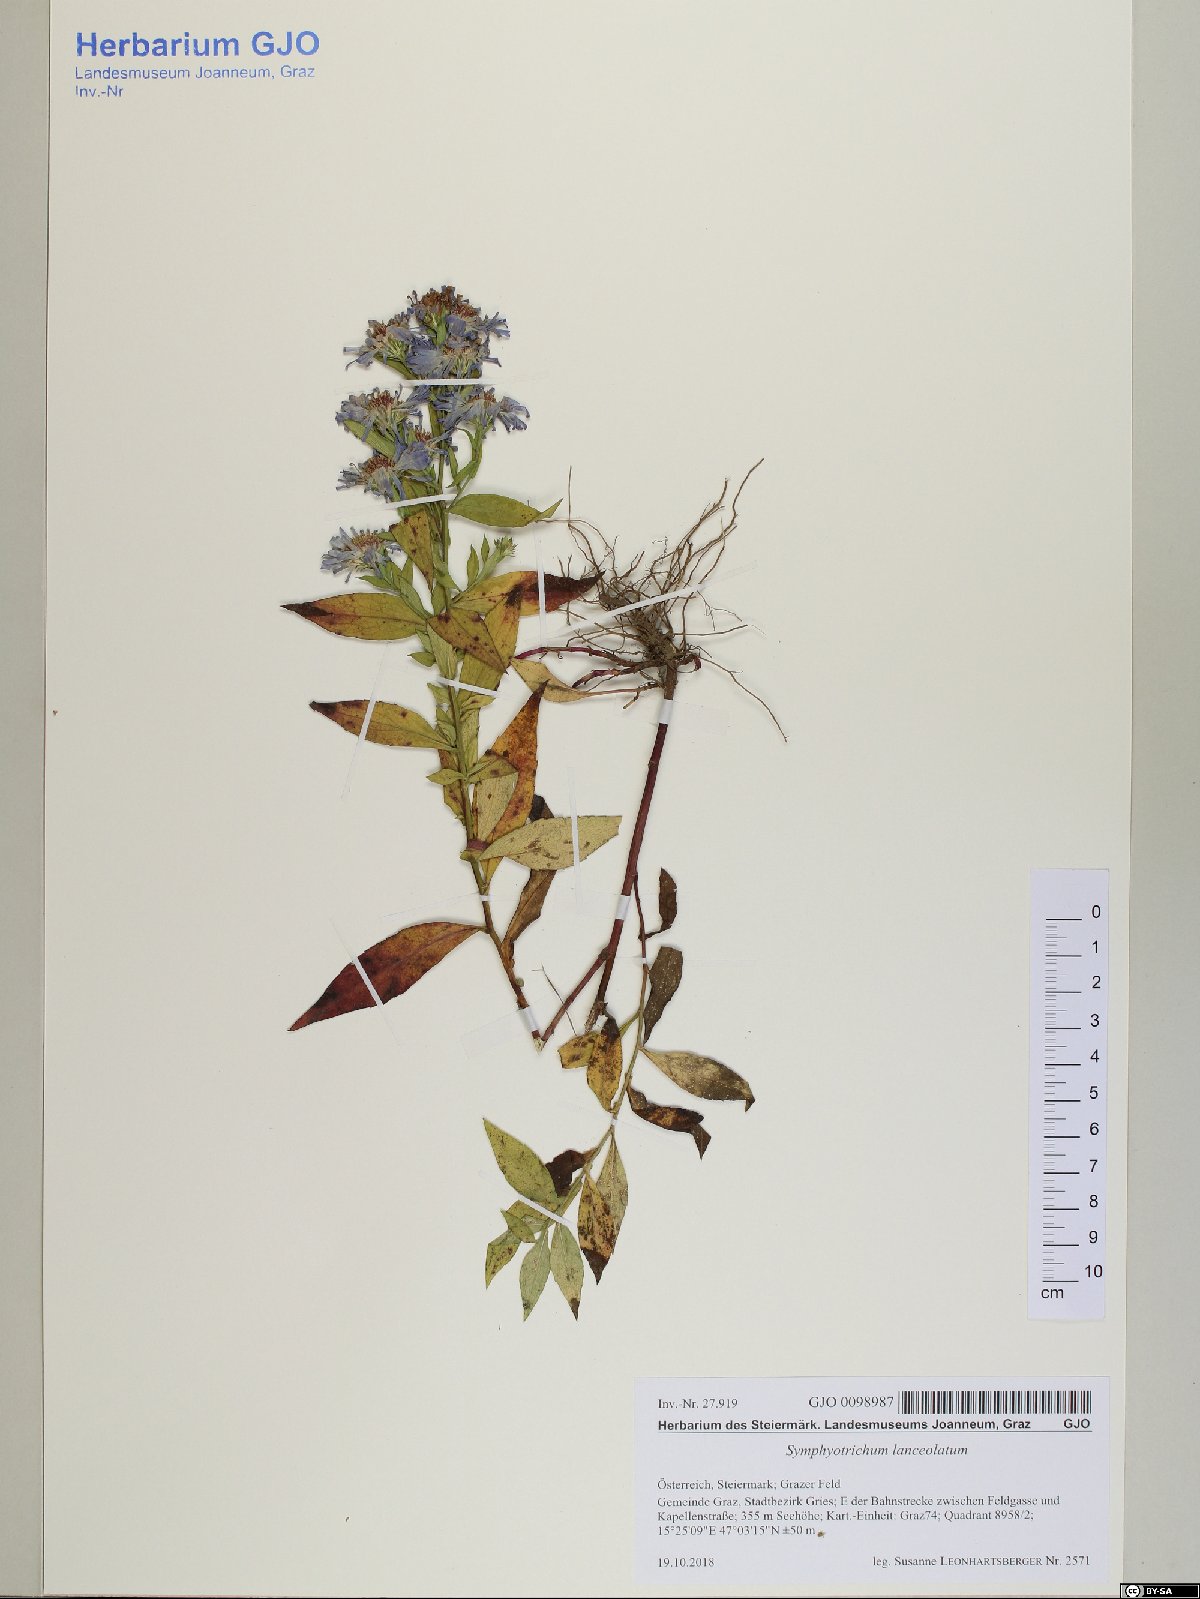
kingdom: Plantae
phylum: Tracheophyta
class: Magnoliopsida
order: Asterales
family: Asteraceae
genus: Symphyotrichum
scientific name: Symphyotrichum lanceolatum
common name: Panicled aster
